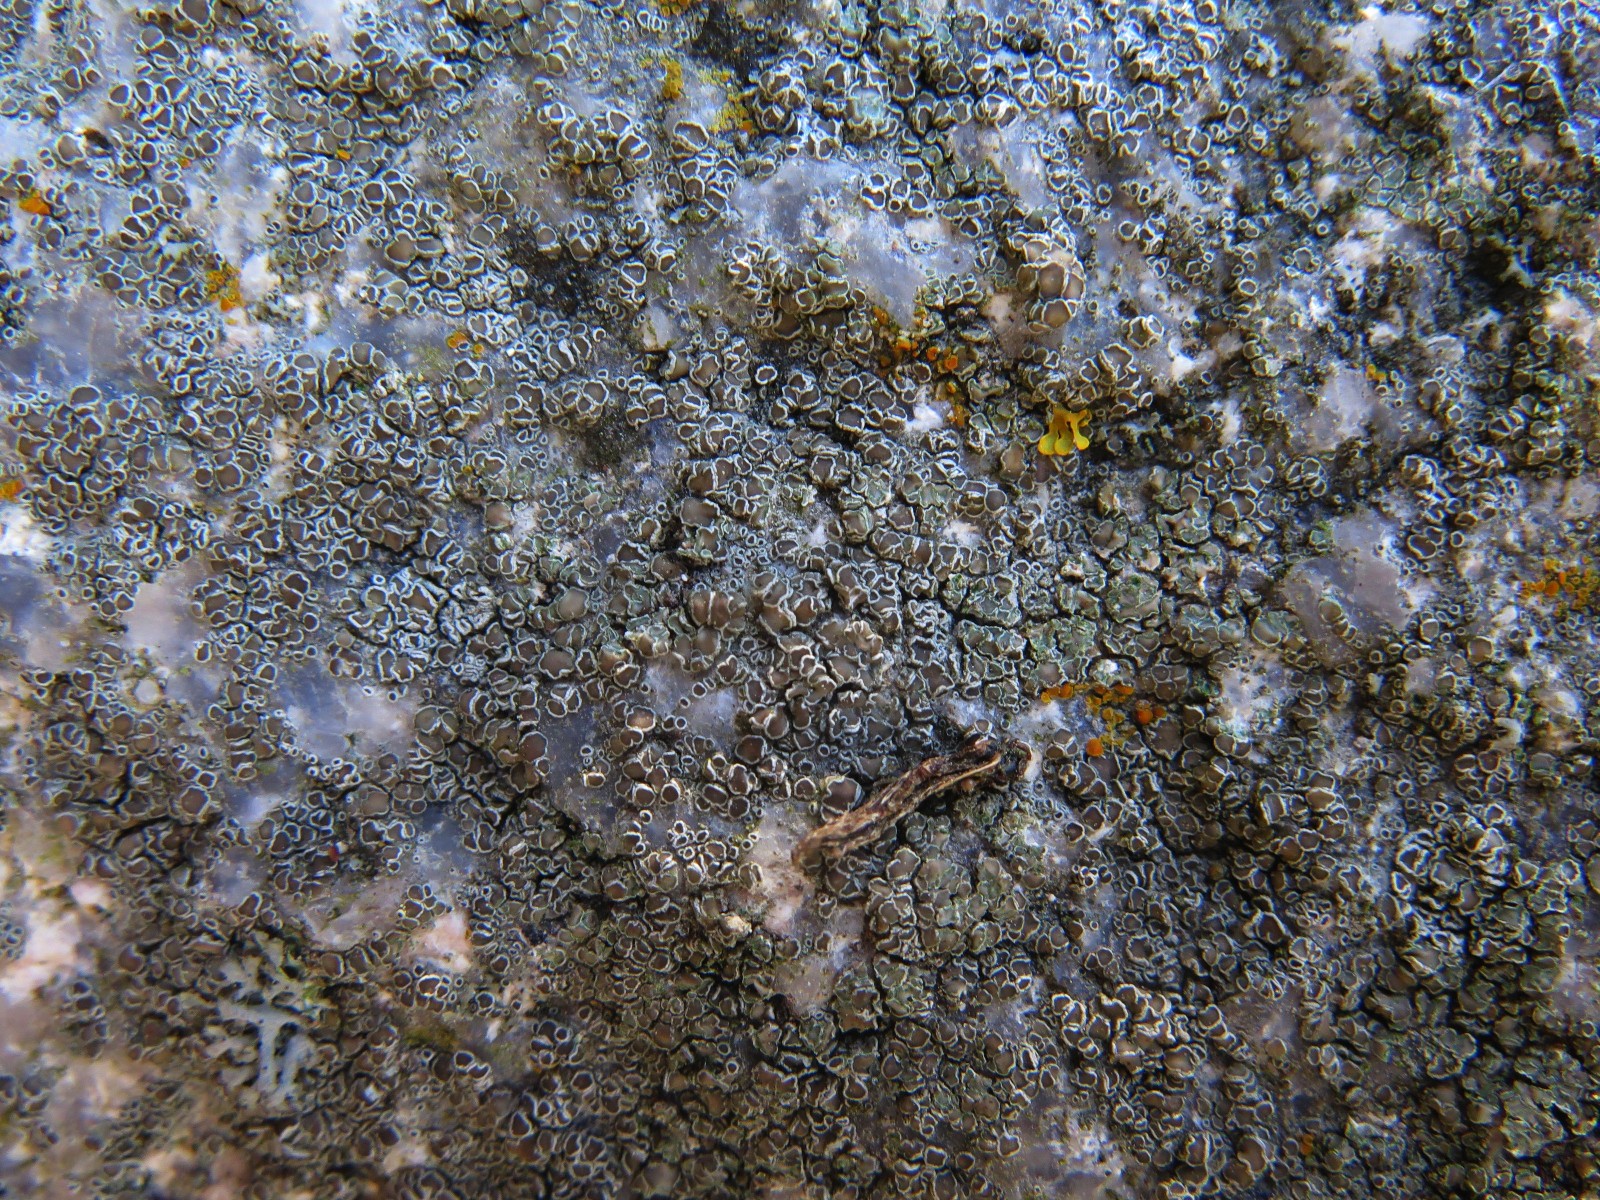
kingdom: Fungi
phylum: Ascomycota
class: Lecanoromycetes
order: Lecanorales
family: Lecanoraceae
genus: Lecanora
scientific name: Lecanora
